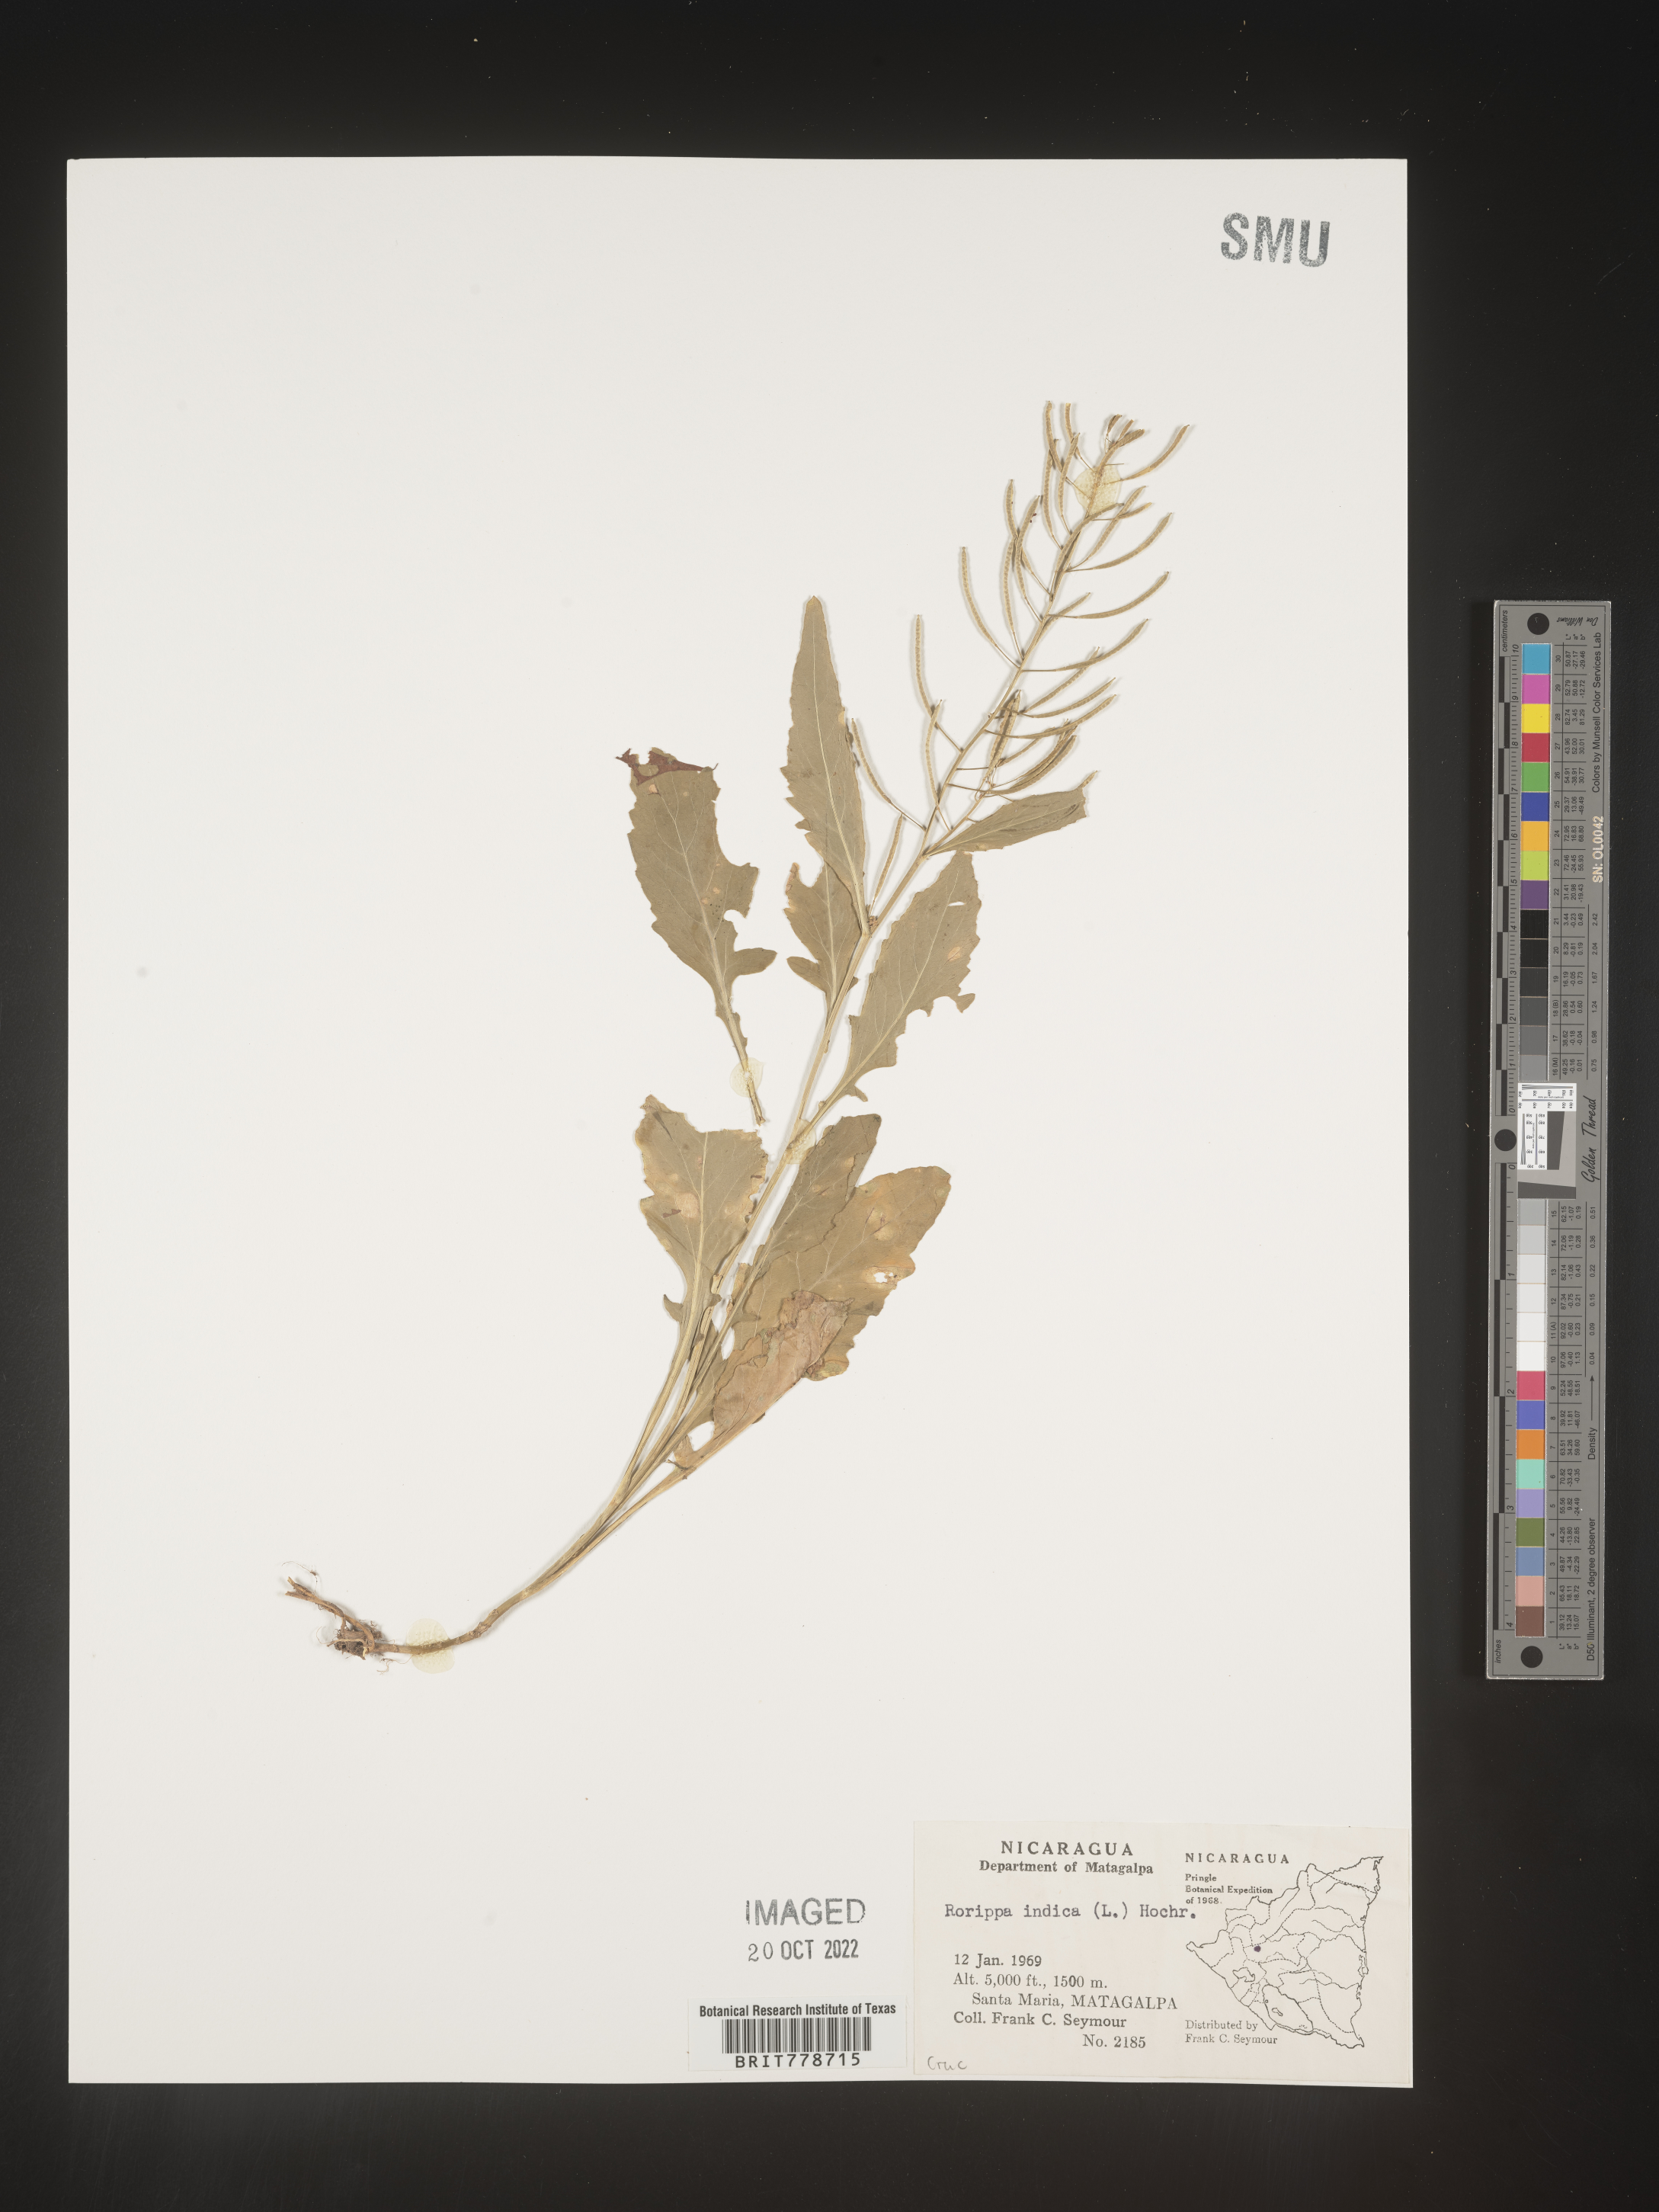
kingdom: Plantae
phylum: Tracheophyta
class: Magnoliopsida
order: Brassicales
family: Brassicaceae
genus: Rorippa
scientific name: Rorippa
